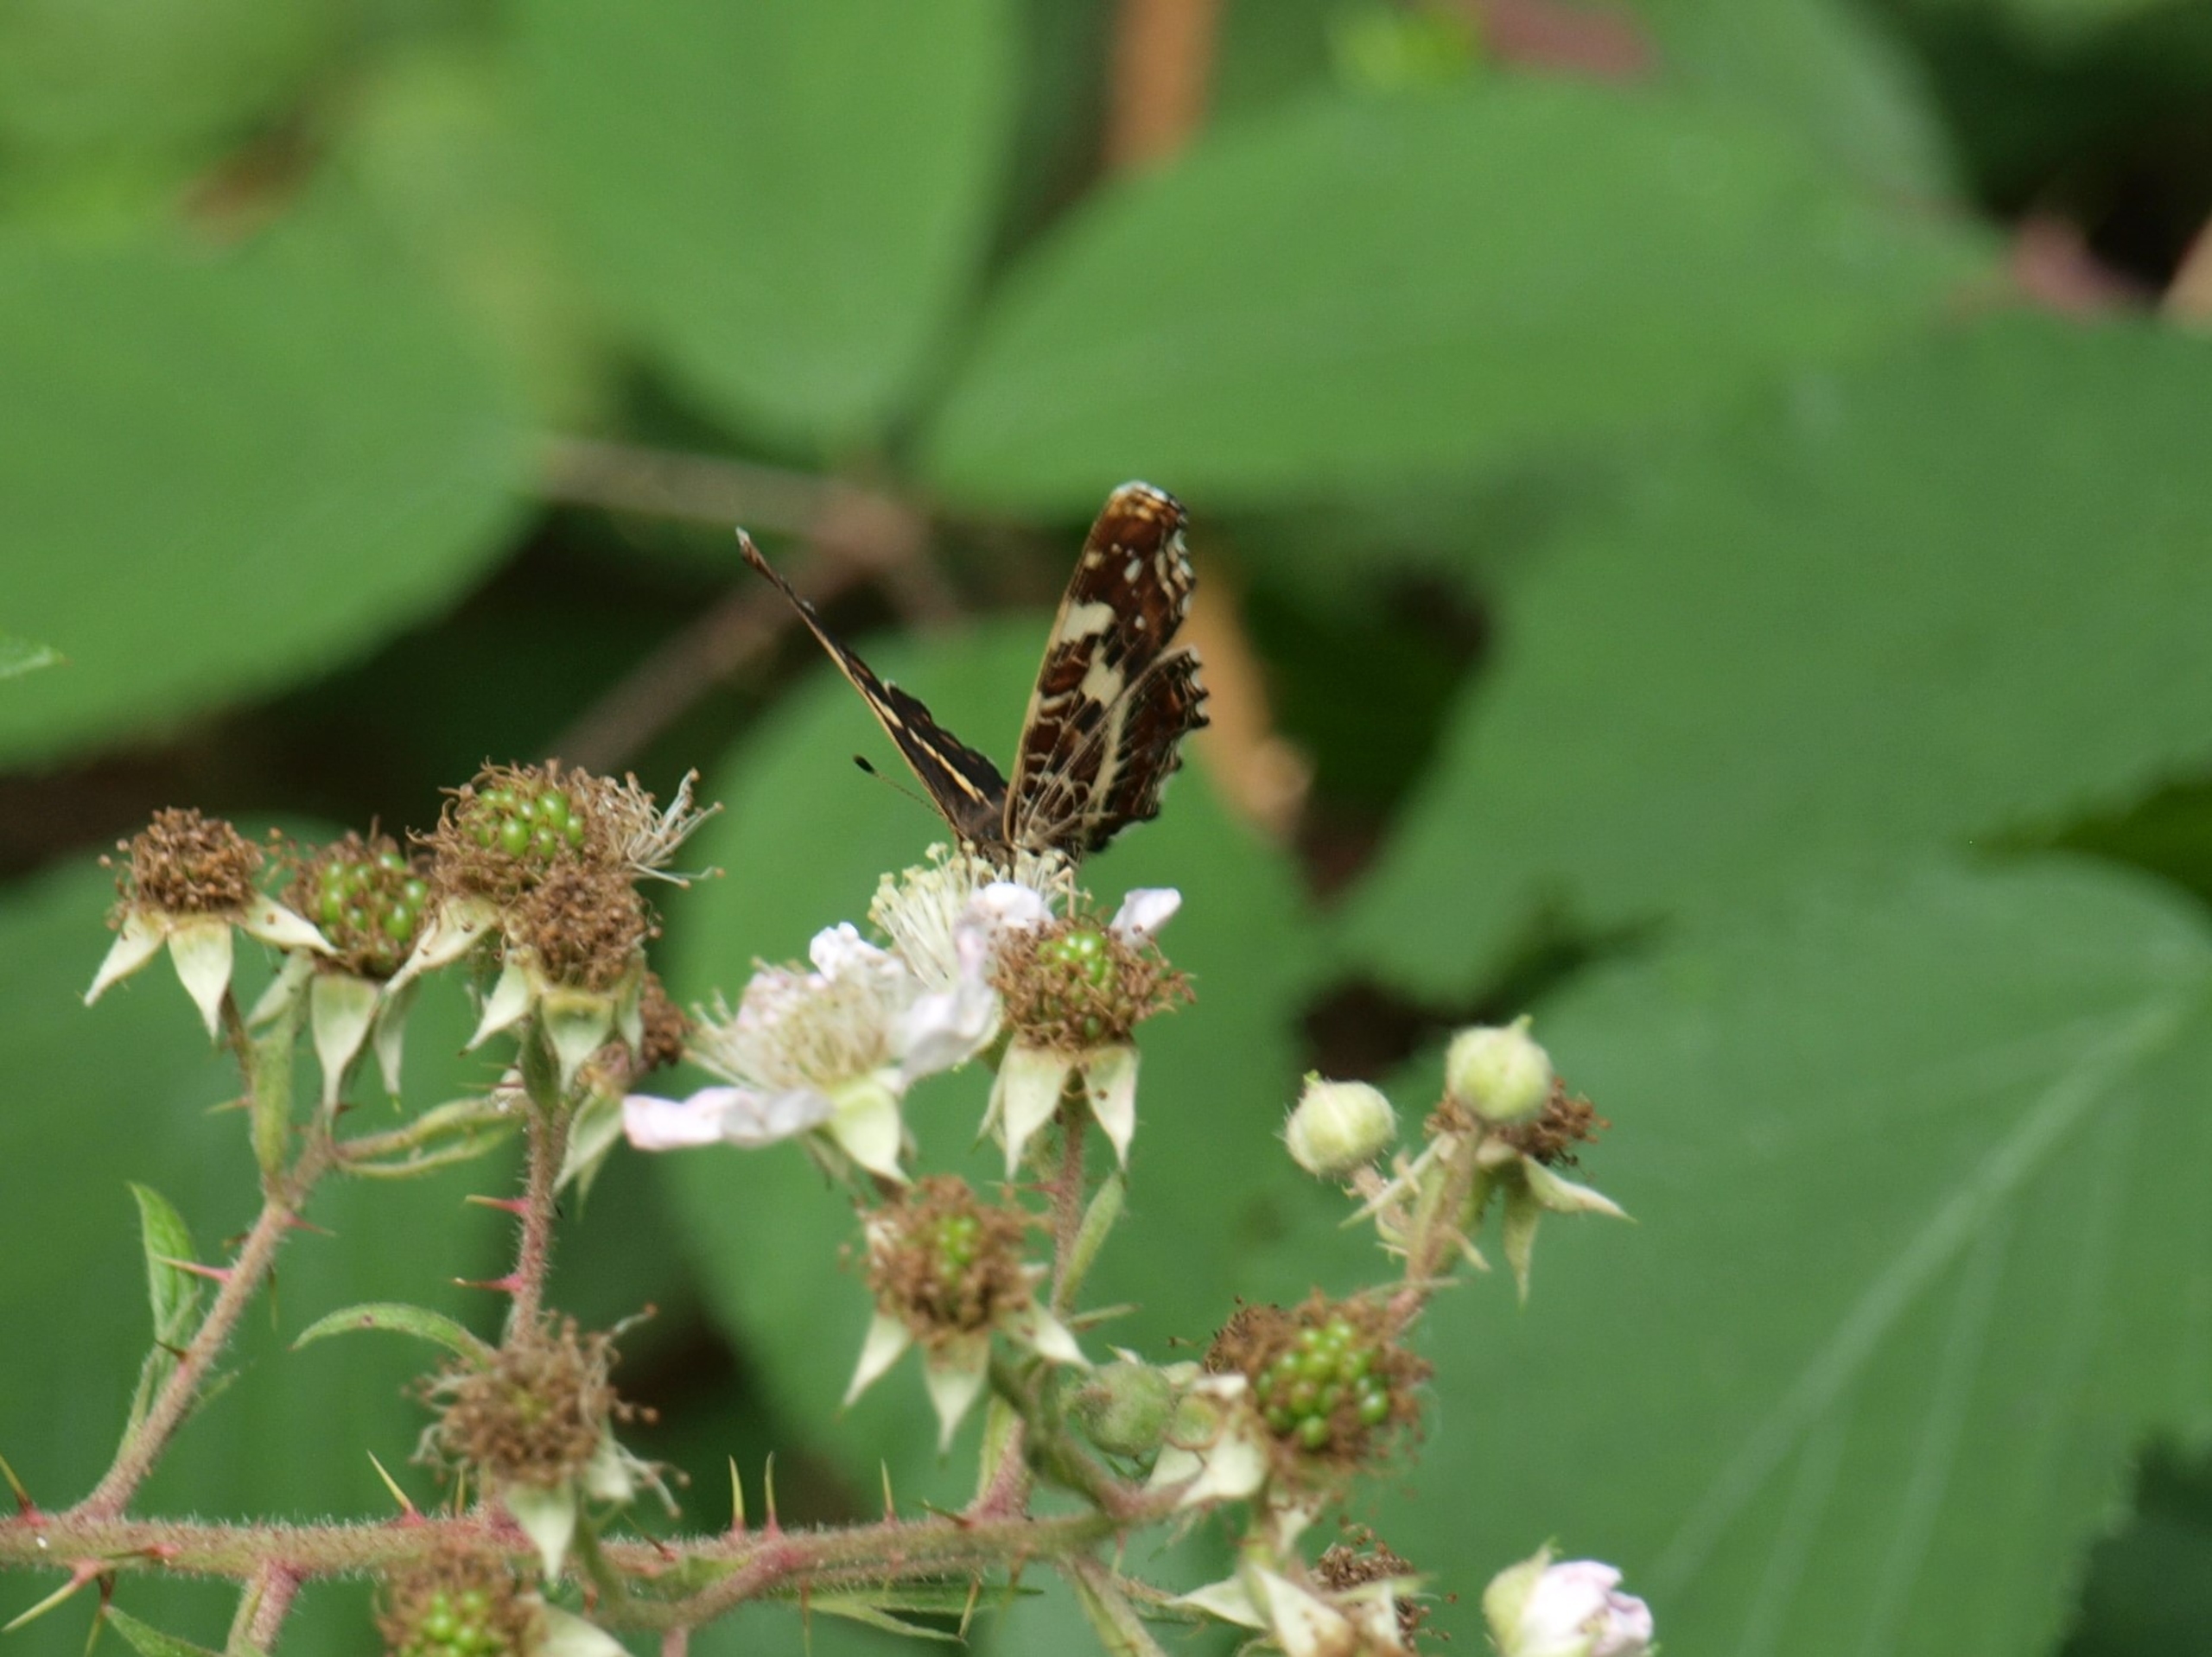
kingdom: Animalia
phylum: Arthropoda
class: Insecta
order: Lepidoptera
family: Nymphalidae
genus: Araschnia
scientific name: Araschnia levana
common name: Nældesommerfugl
